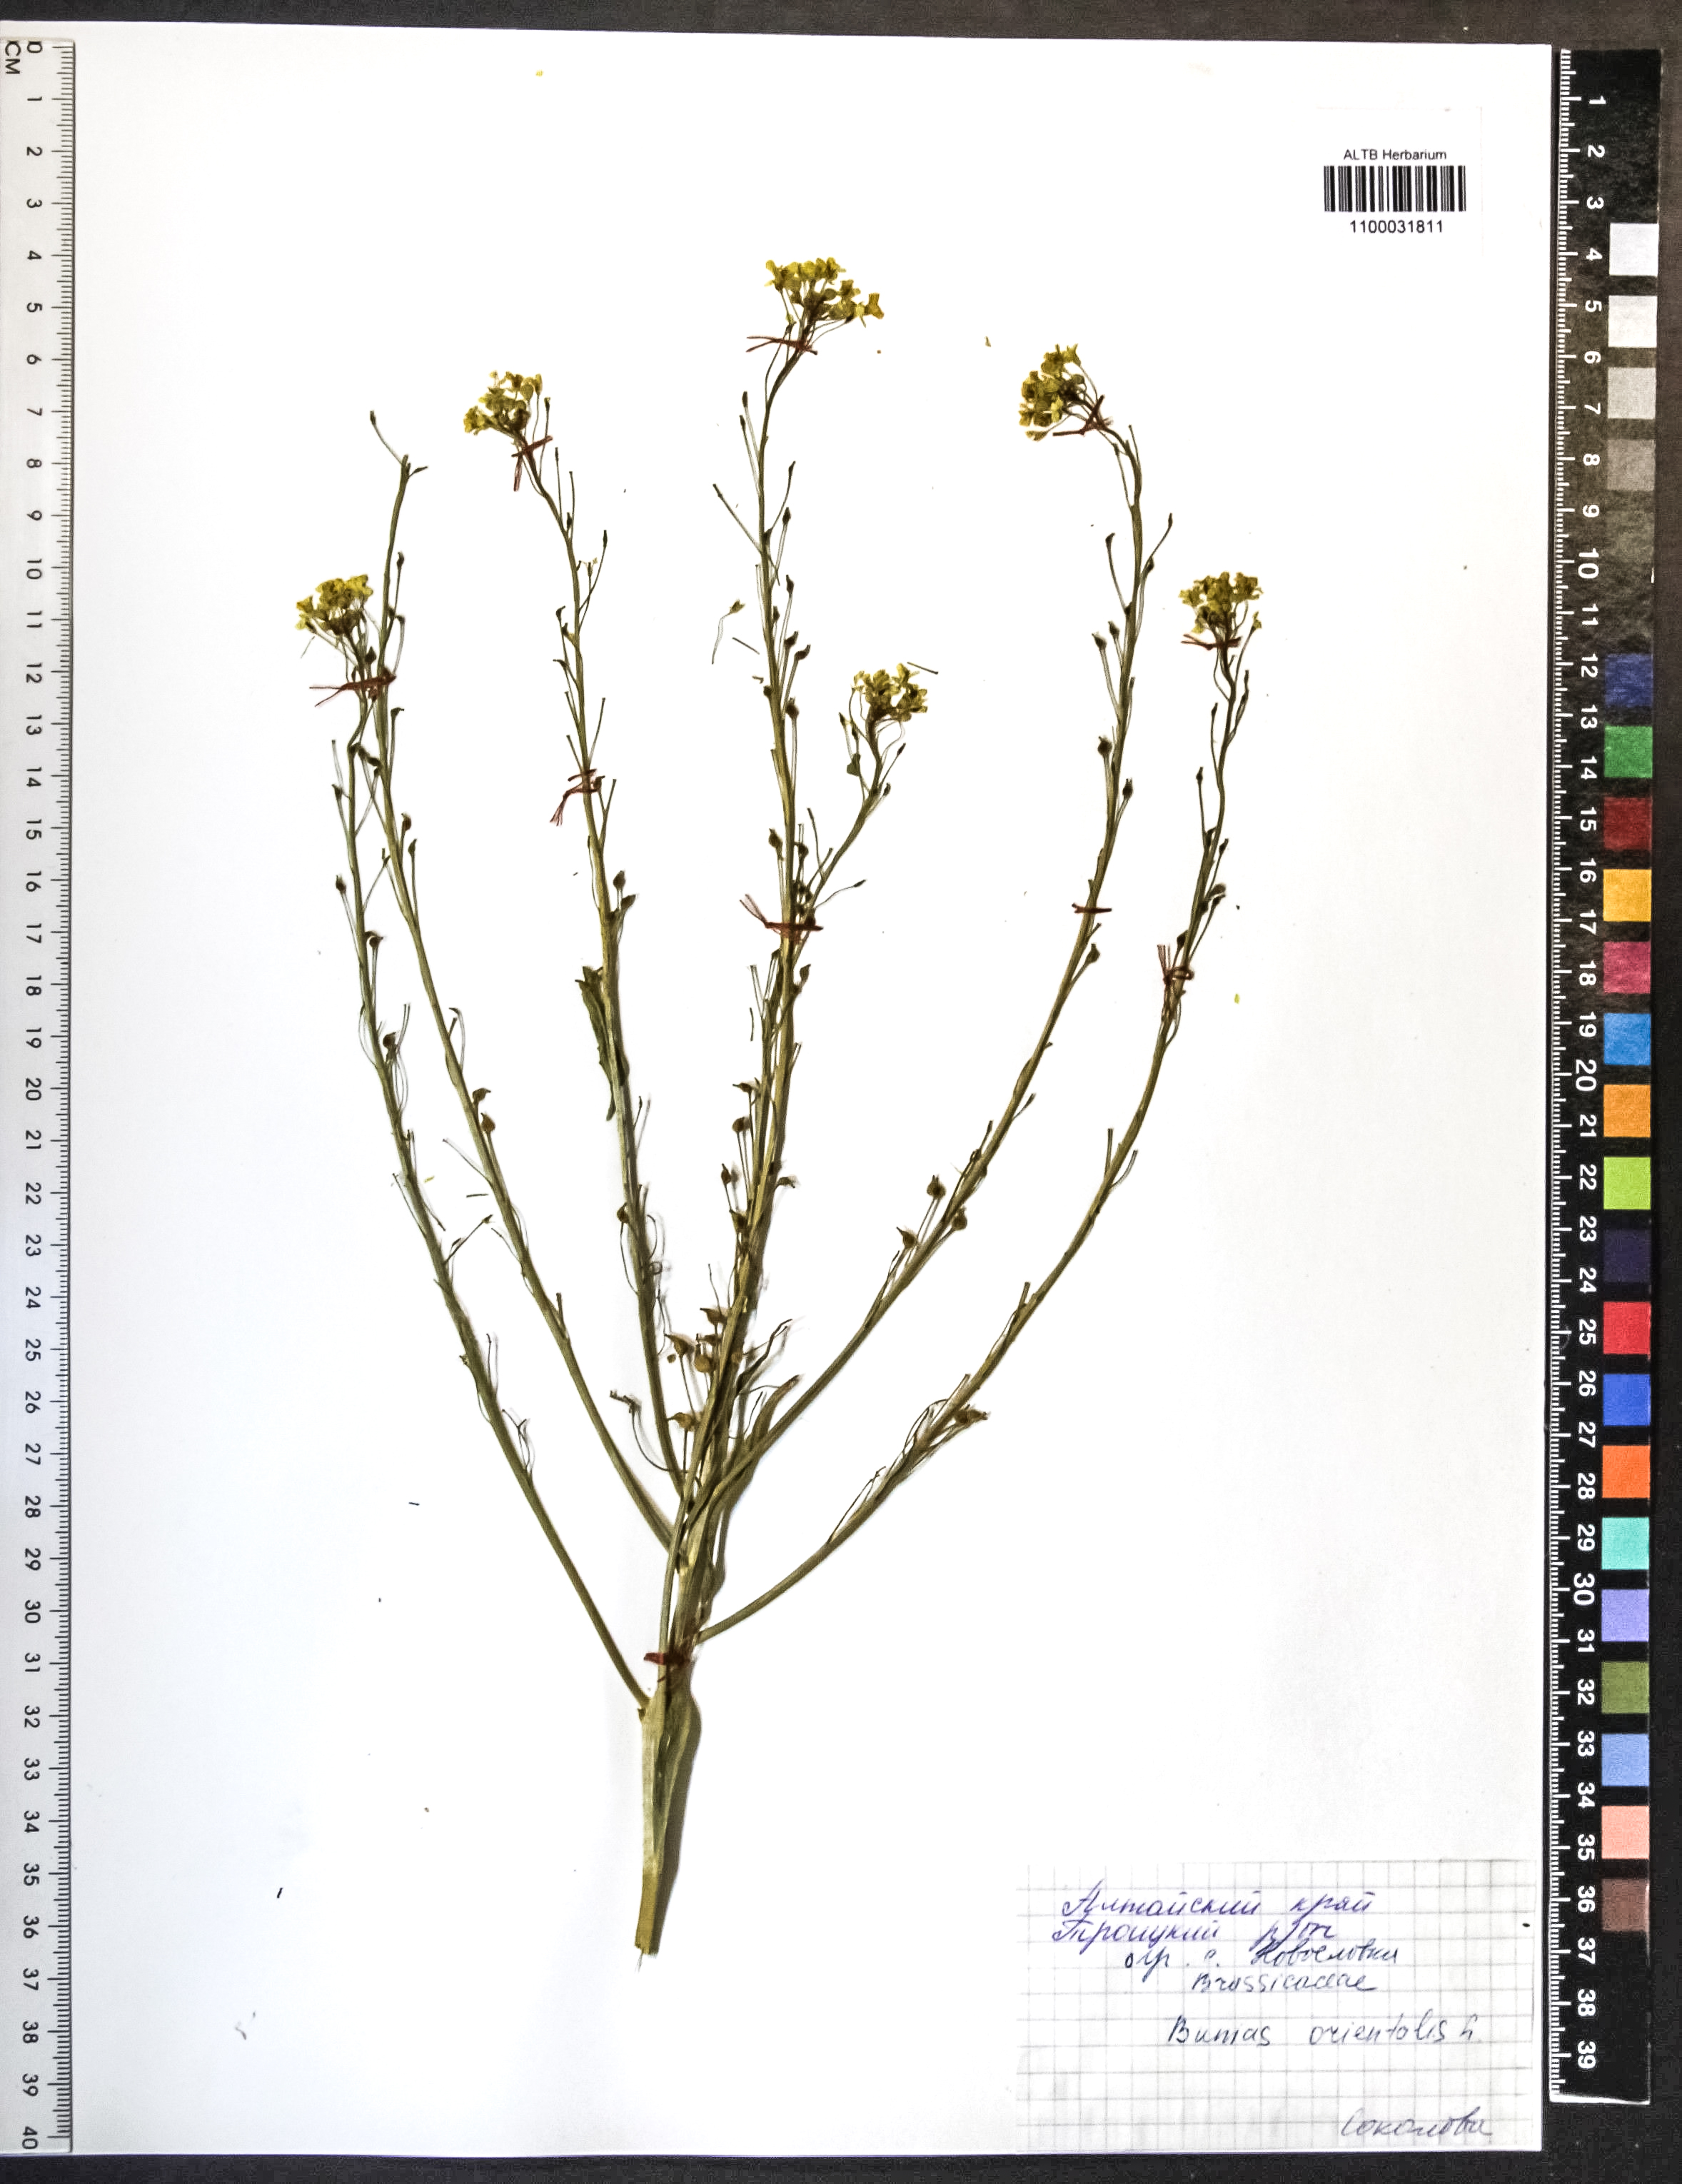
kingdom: Plantae
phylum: Tracheophyta
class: Magnoliopsida
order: Brassicales
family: Brassicaceae
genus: Bunias
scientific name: Bunias orientalis
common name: Warty-cabbage
